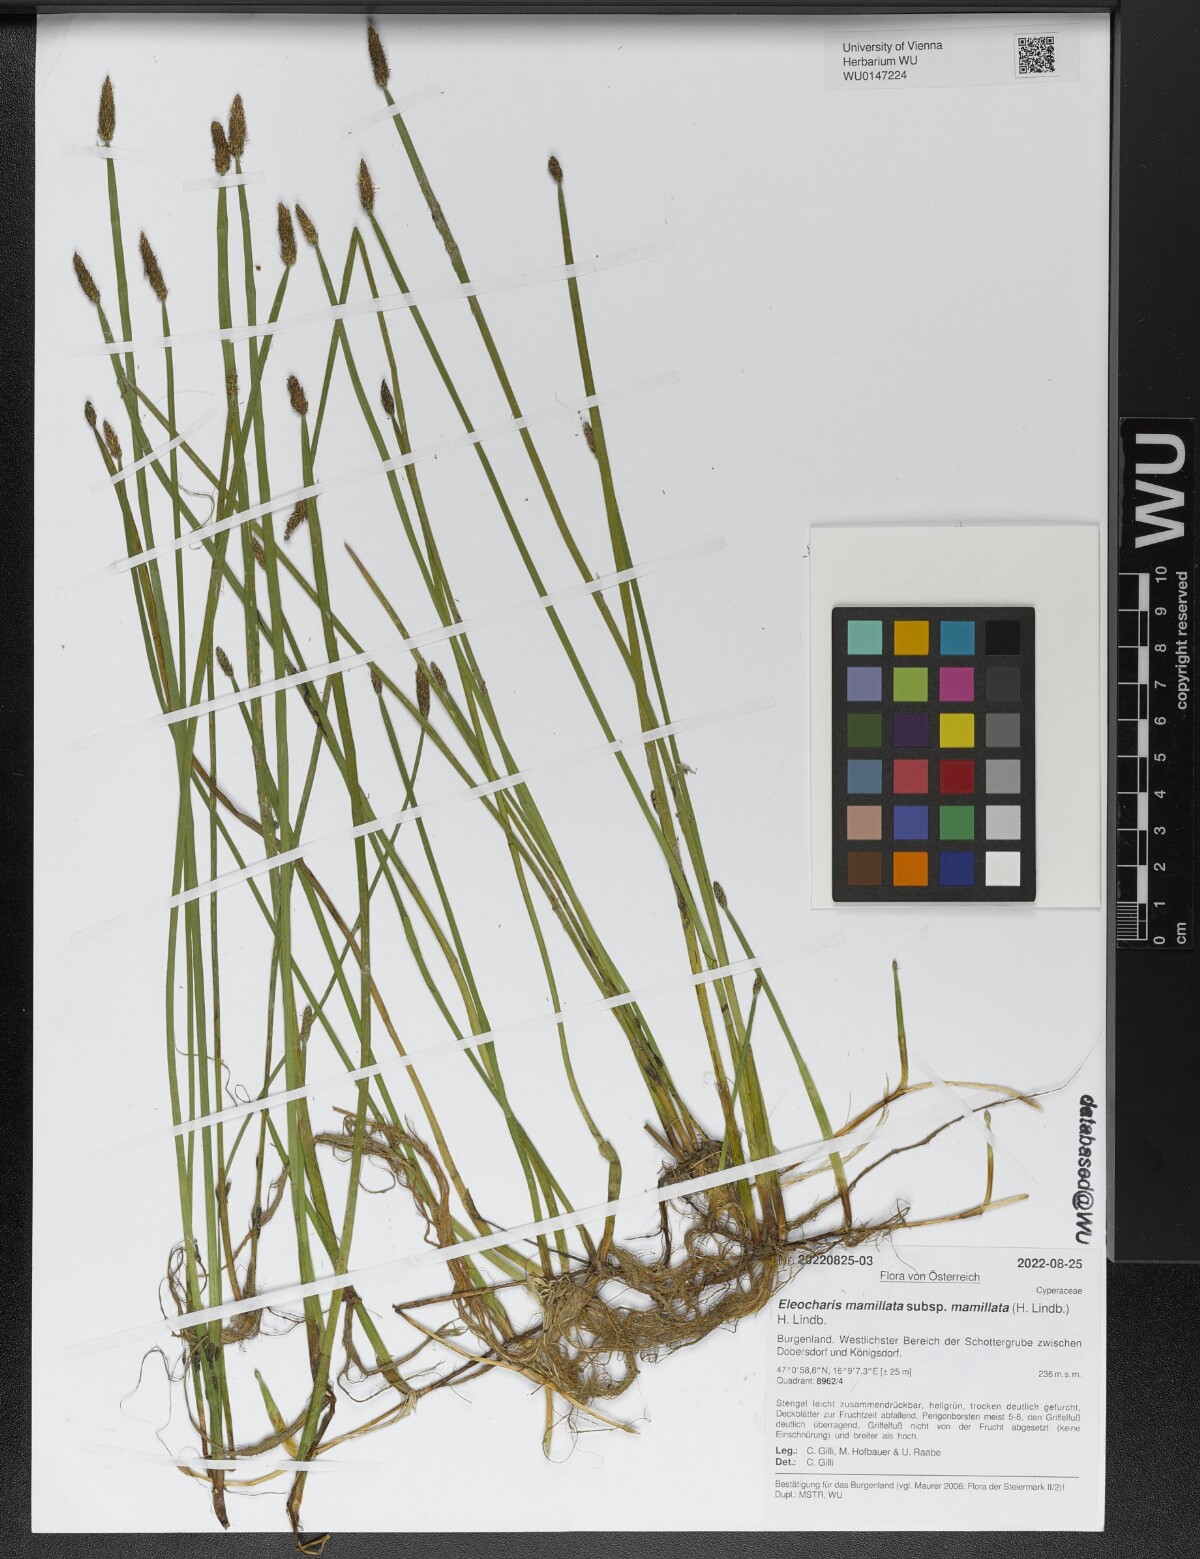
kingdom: Plantae
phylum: Tracheophyta
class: Liliopsida
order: Poales
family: Cyperaceae
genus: Eleocharis
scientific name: Eleocharis mamillata
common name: Northern spike-rush
